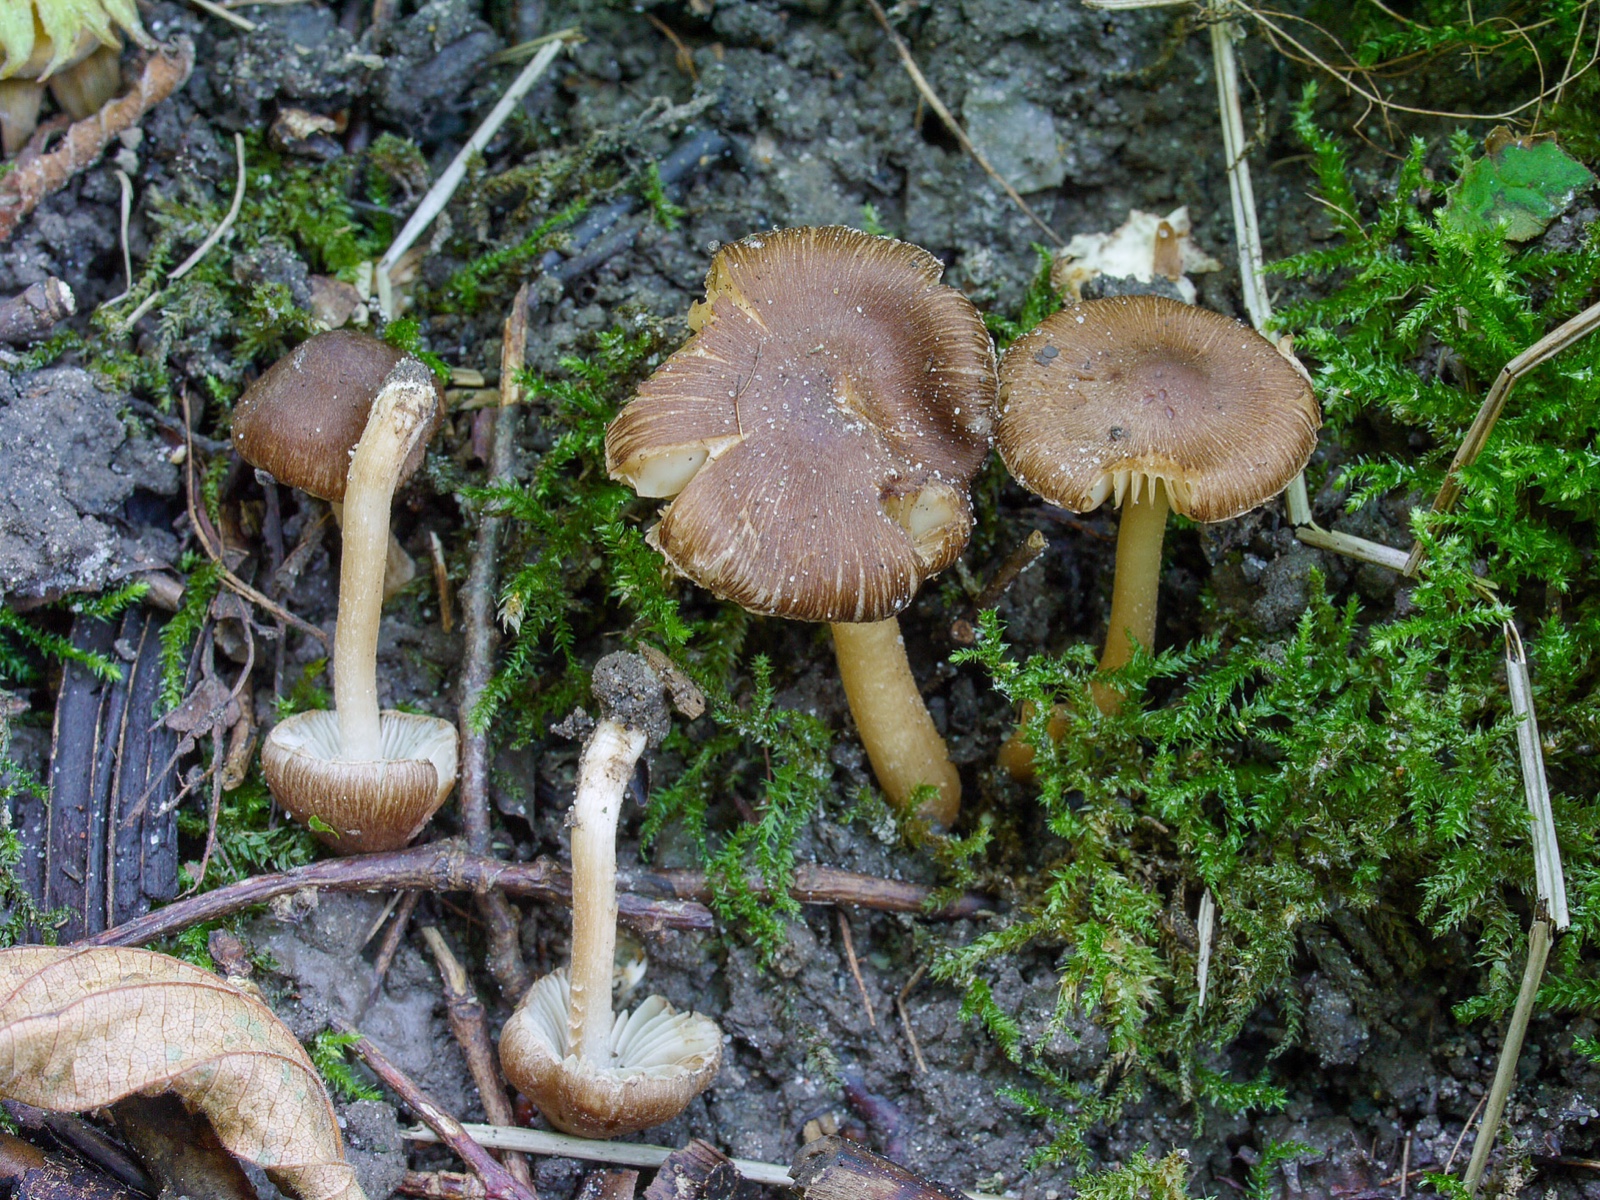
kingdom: Fungi
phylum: Basidiomycota
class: Agaricomycetes
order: Agaricales
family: Inocybaceae
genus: Inocybe
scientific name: Inocybe jucunda
